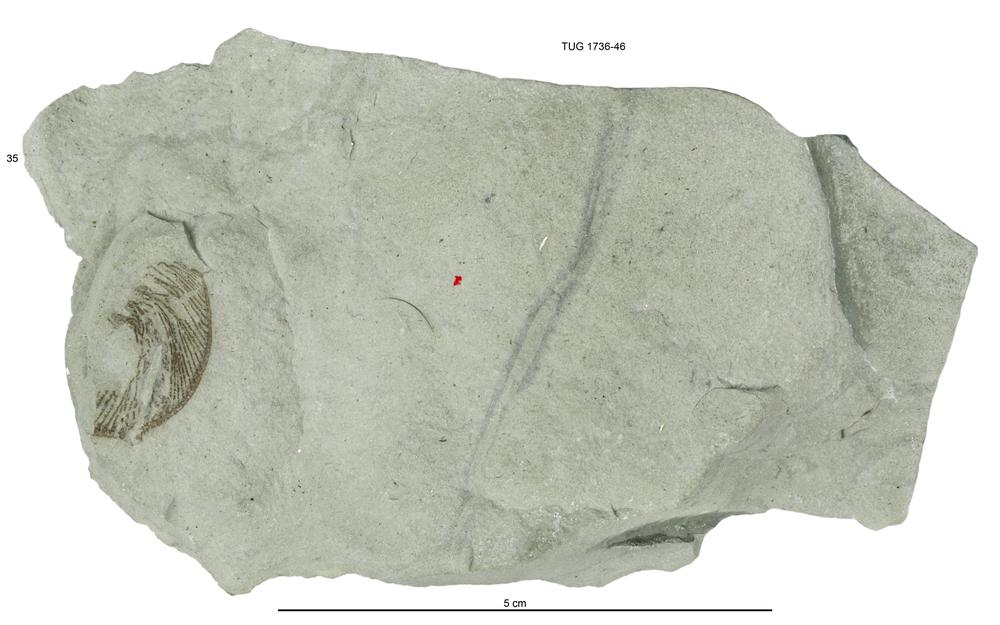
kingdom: Animalia
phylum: Echinodermata
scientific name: Echinodermata
